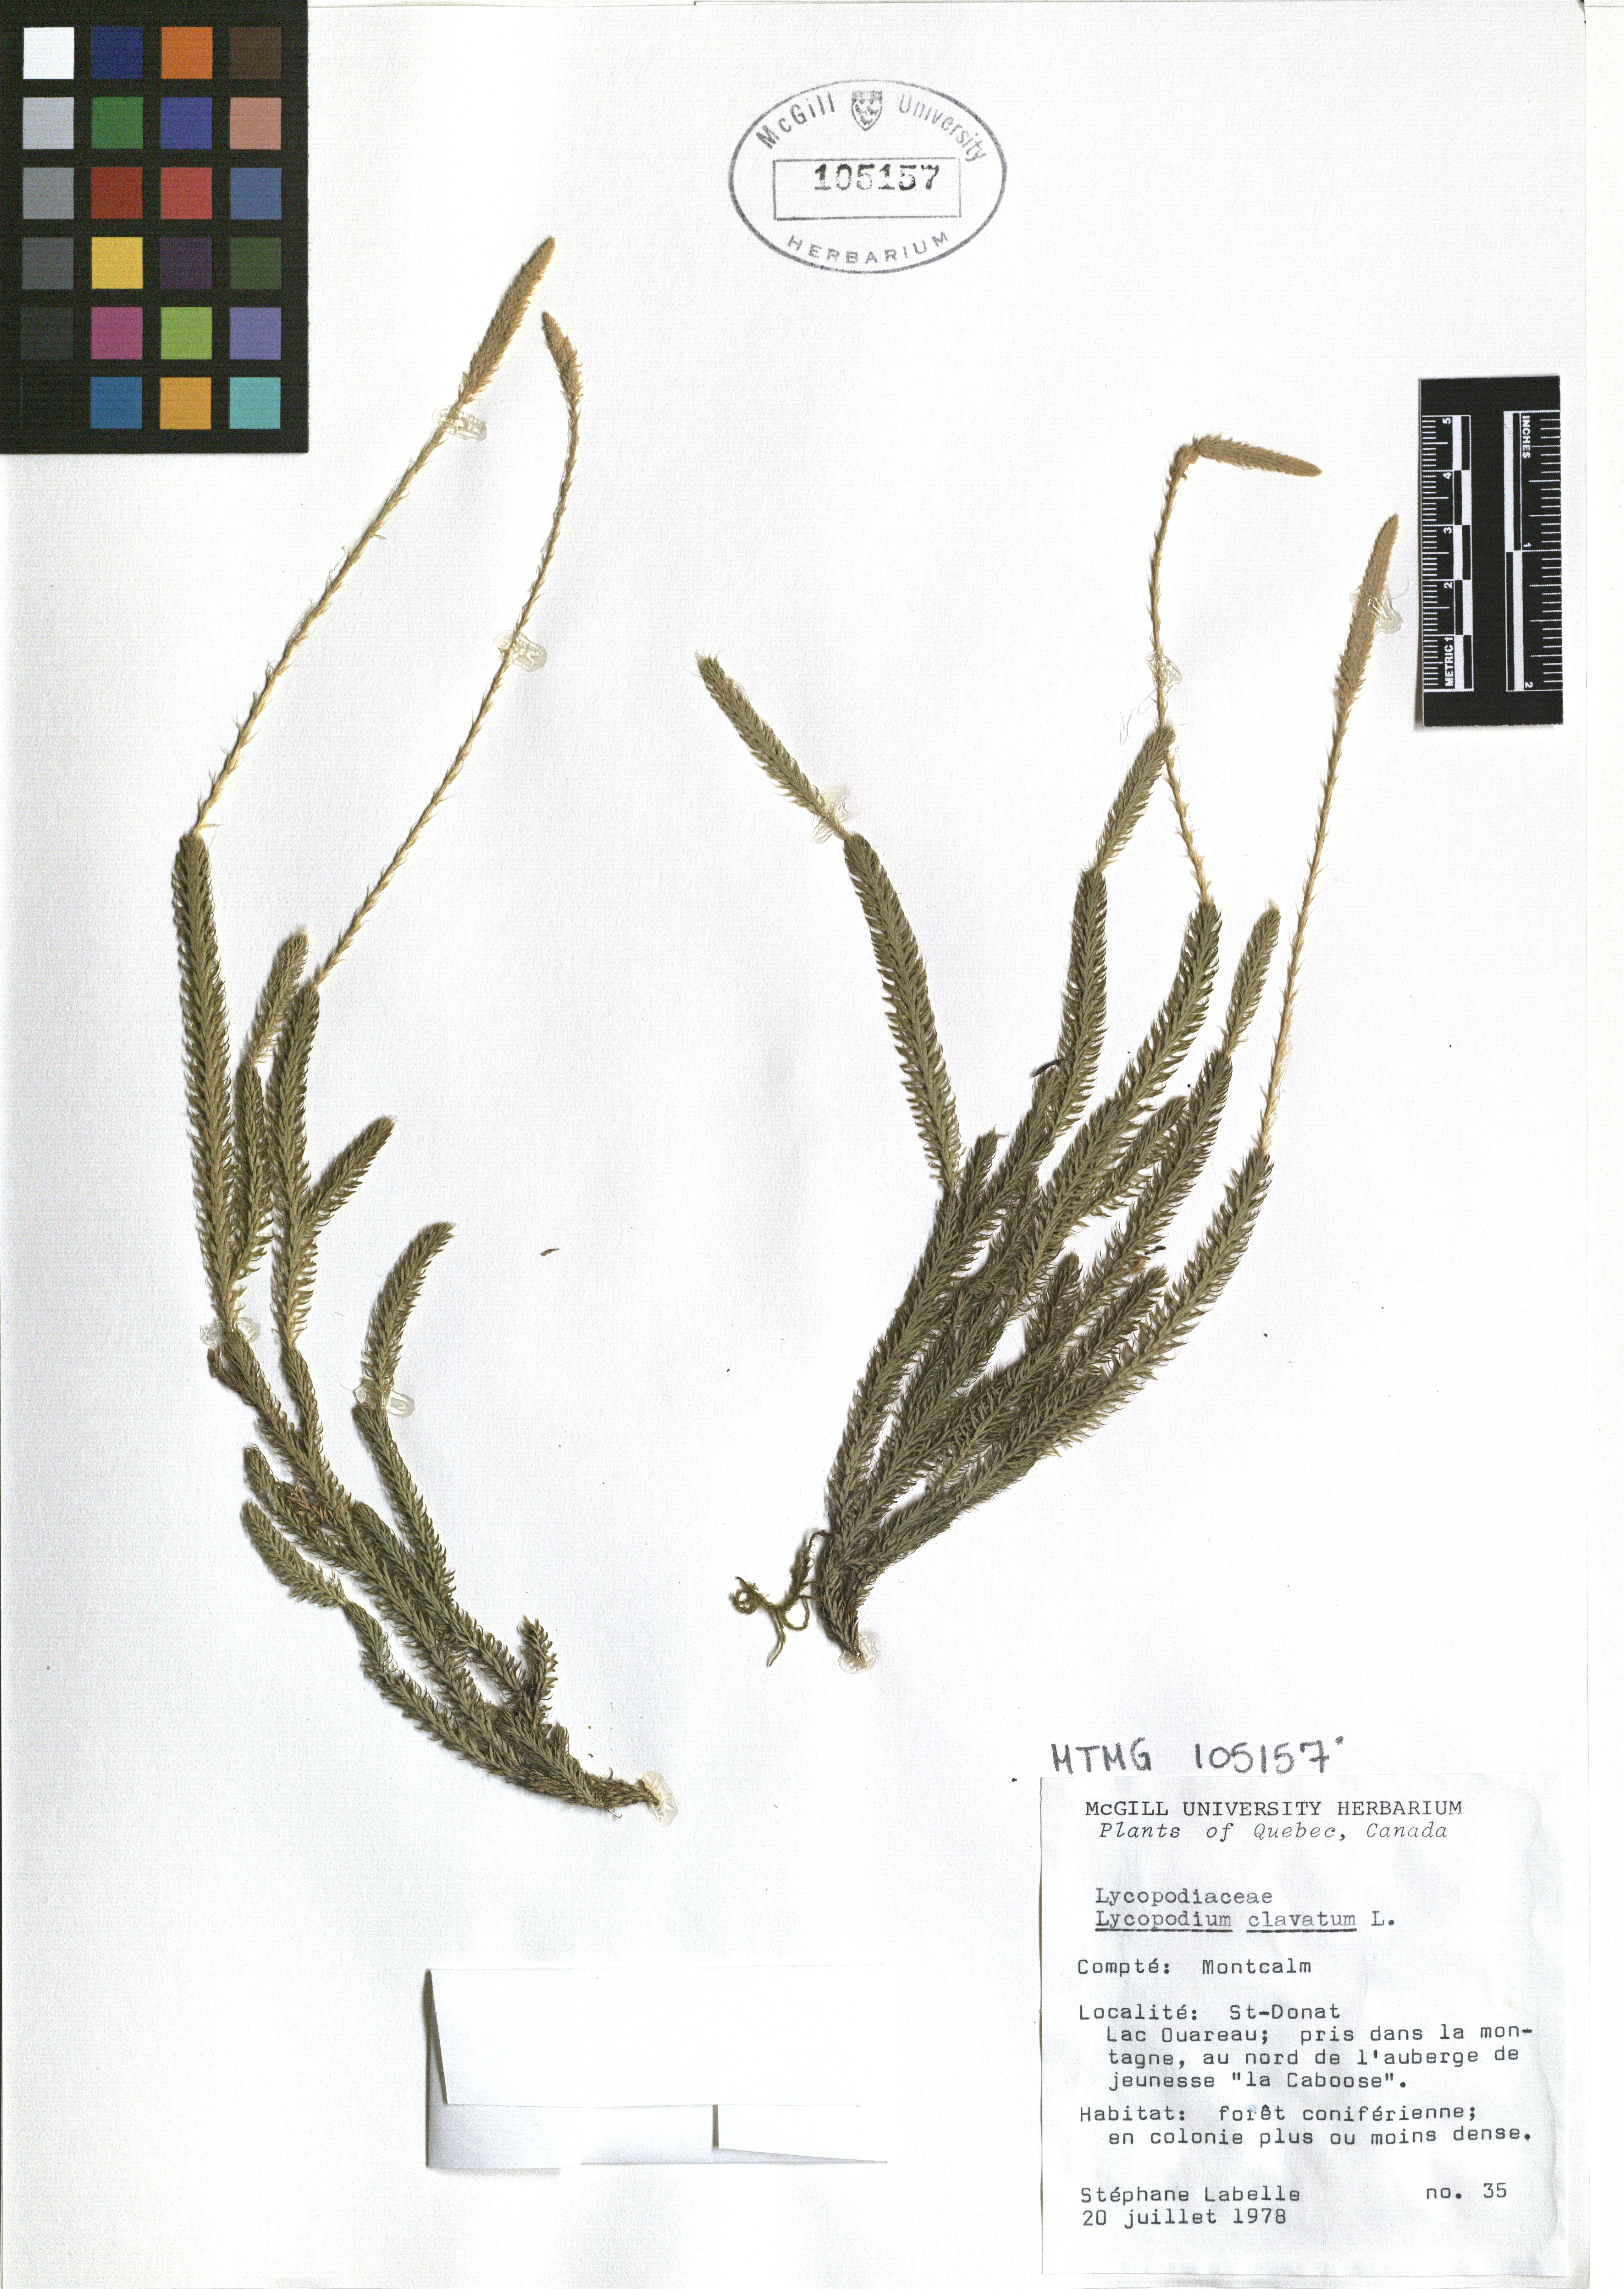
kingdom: Plantae
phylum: Tracheophyta
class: Lycopodiopsida
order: Lycopodiales
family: Lycopodiaceae
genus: Lycopodium
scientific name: Lycopodium clavatum
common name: Stag's-horn clubmoss
